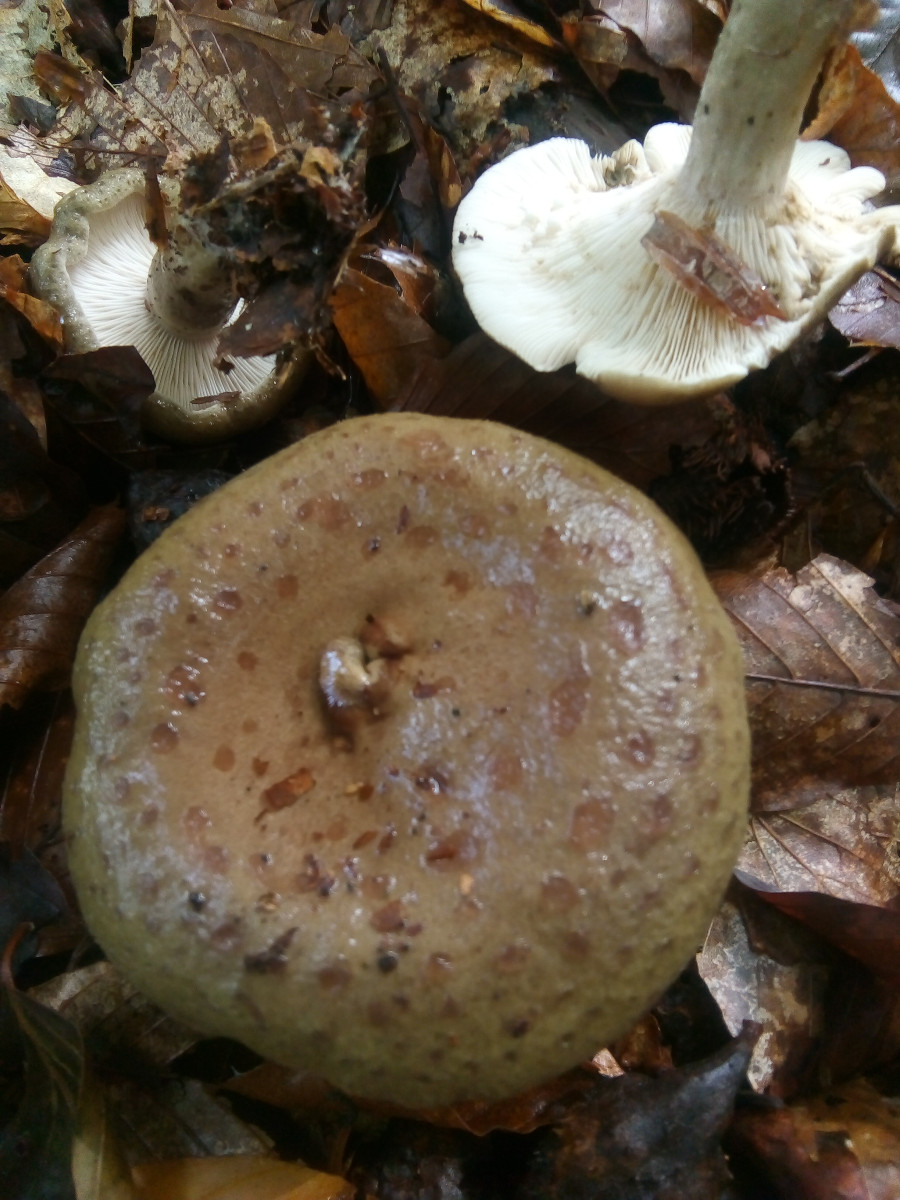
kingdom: Fungi
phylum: Basidiomycota
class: Agaricomycetes
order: Russulales
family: Russulaceae
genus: Lactarius
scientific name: Lactarius blennius
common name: dråbeplettet mælkehat
